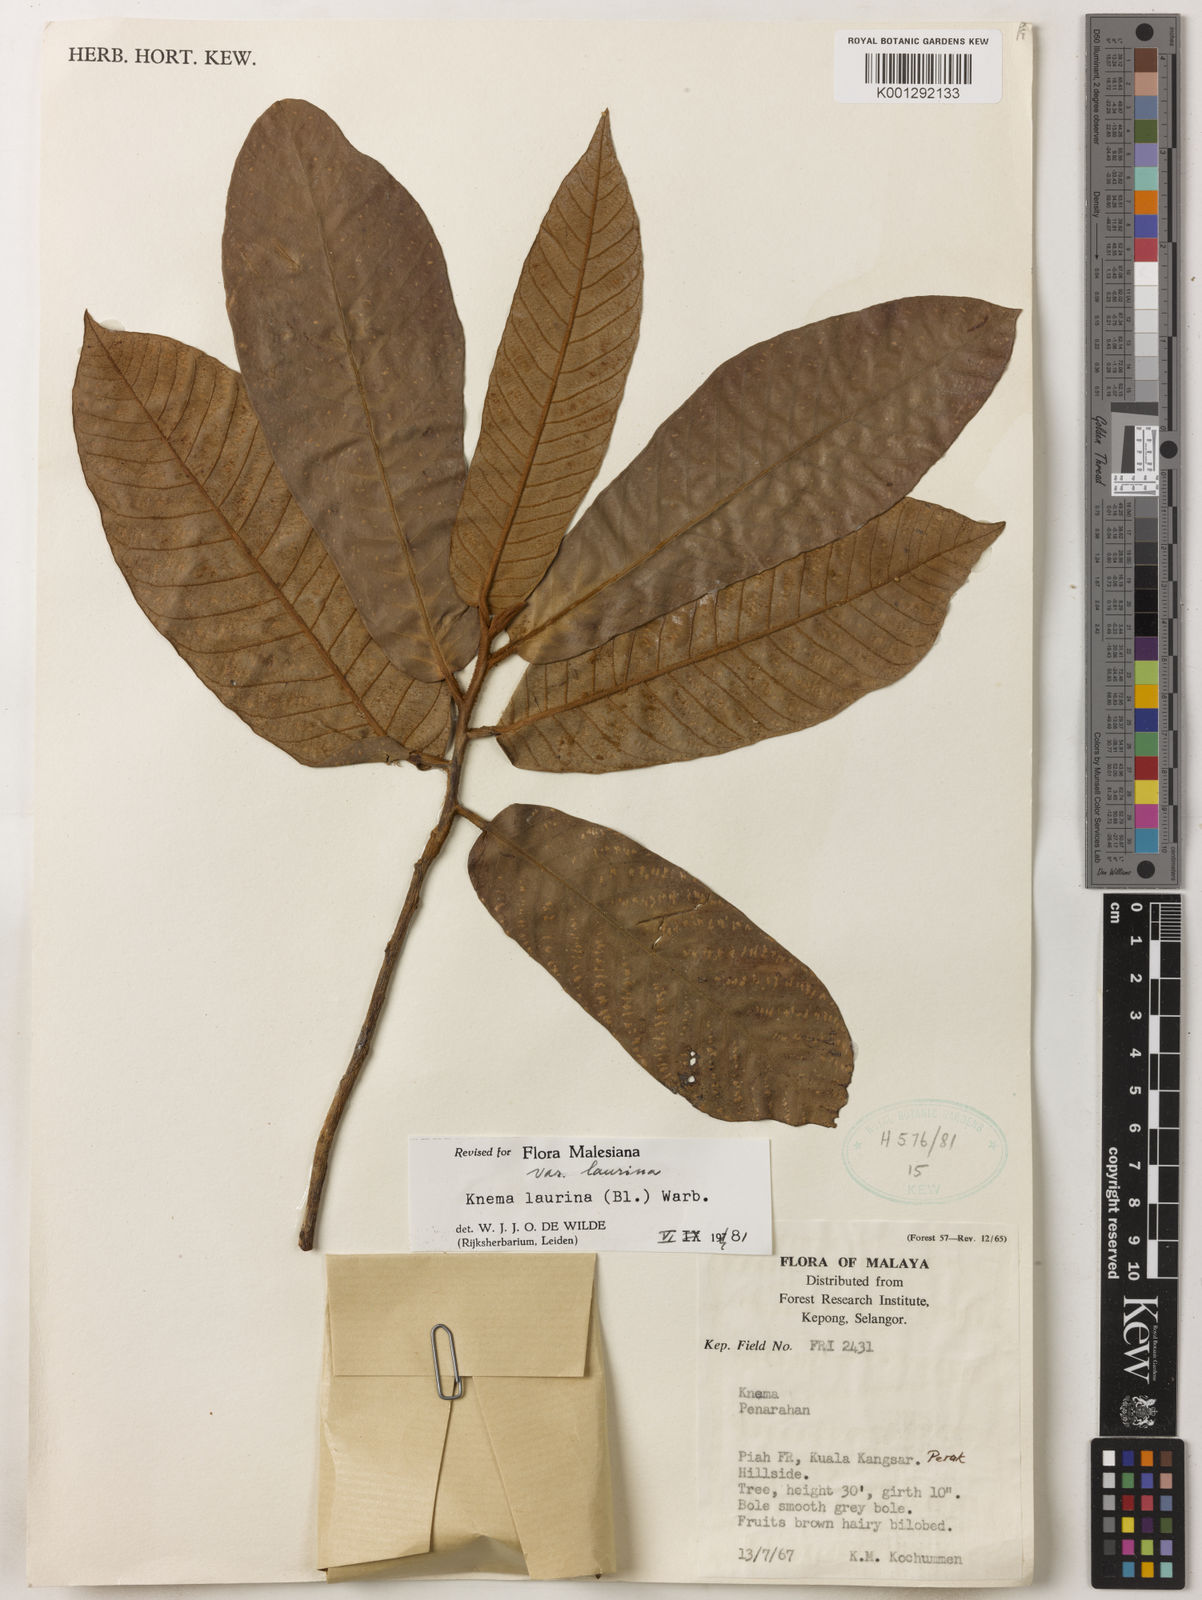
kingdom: Plantae
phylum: Tracheophyta
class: Magnoliopsida
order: Magnoliales
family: Myristicaceae
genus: Knema
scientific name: Knema laurina
